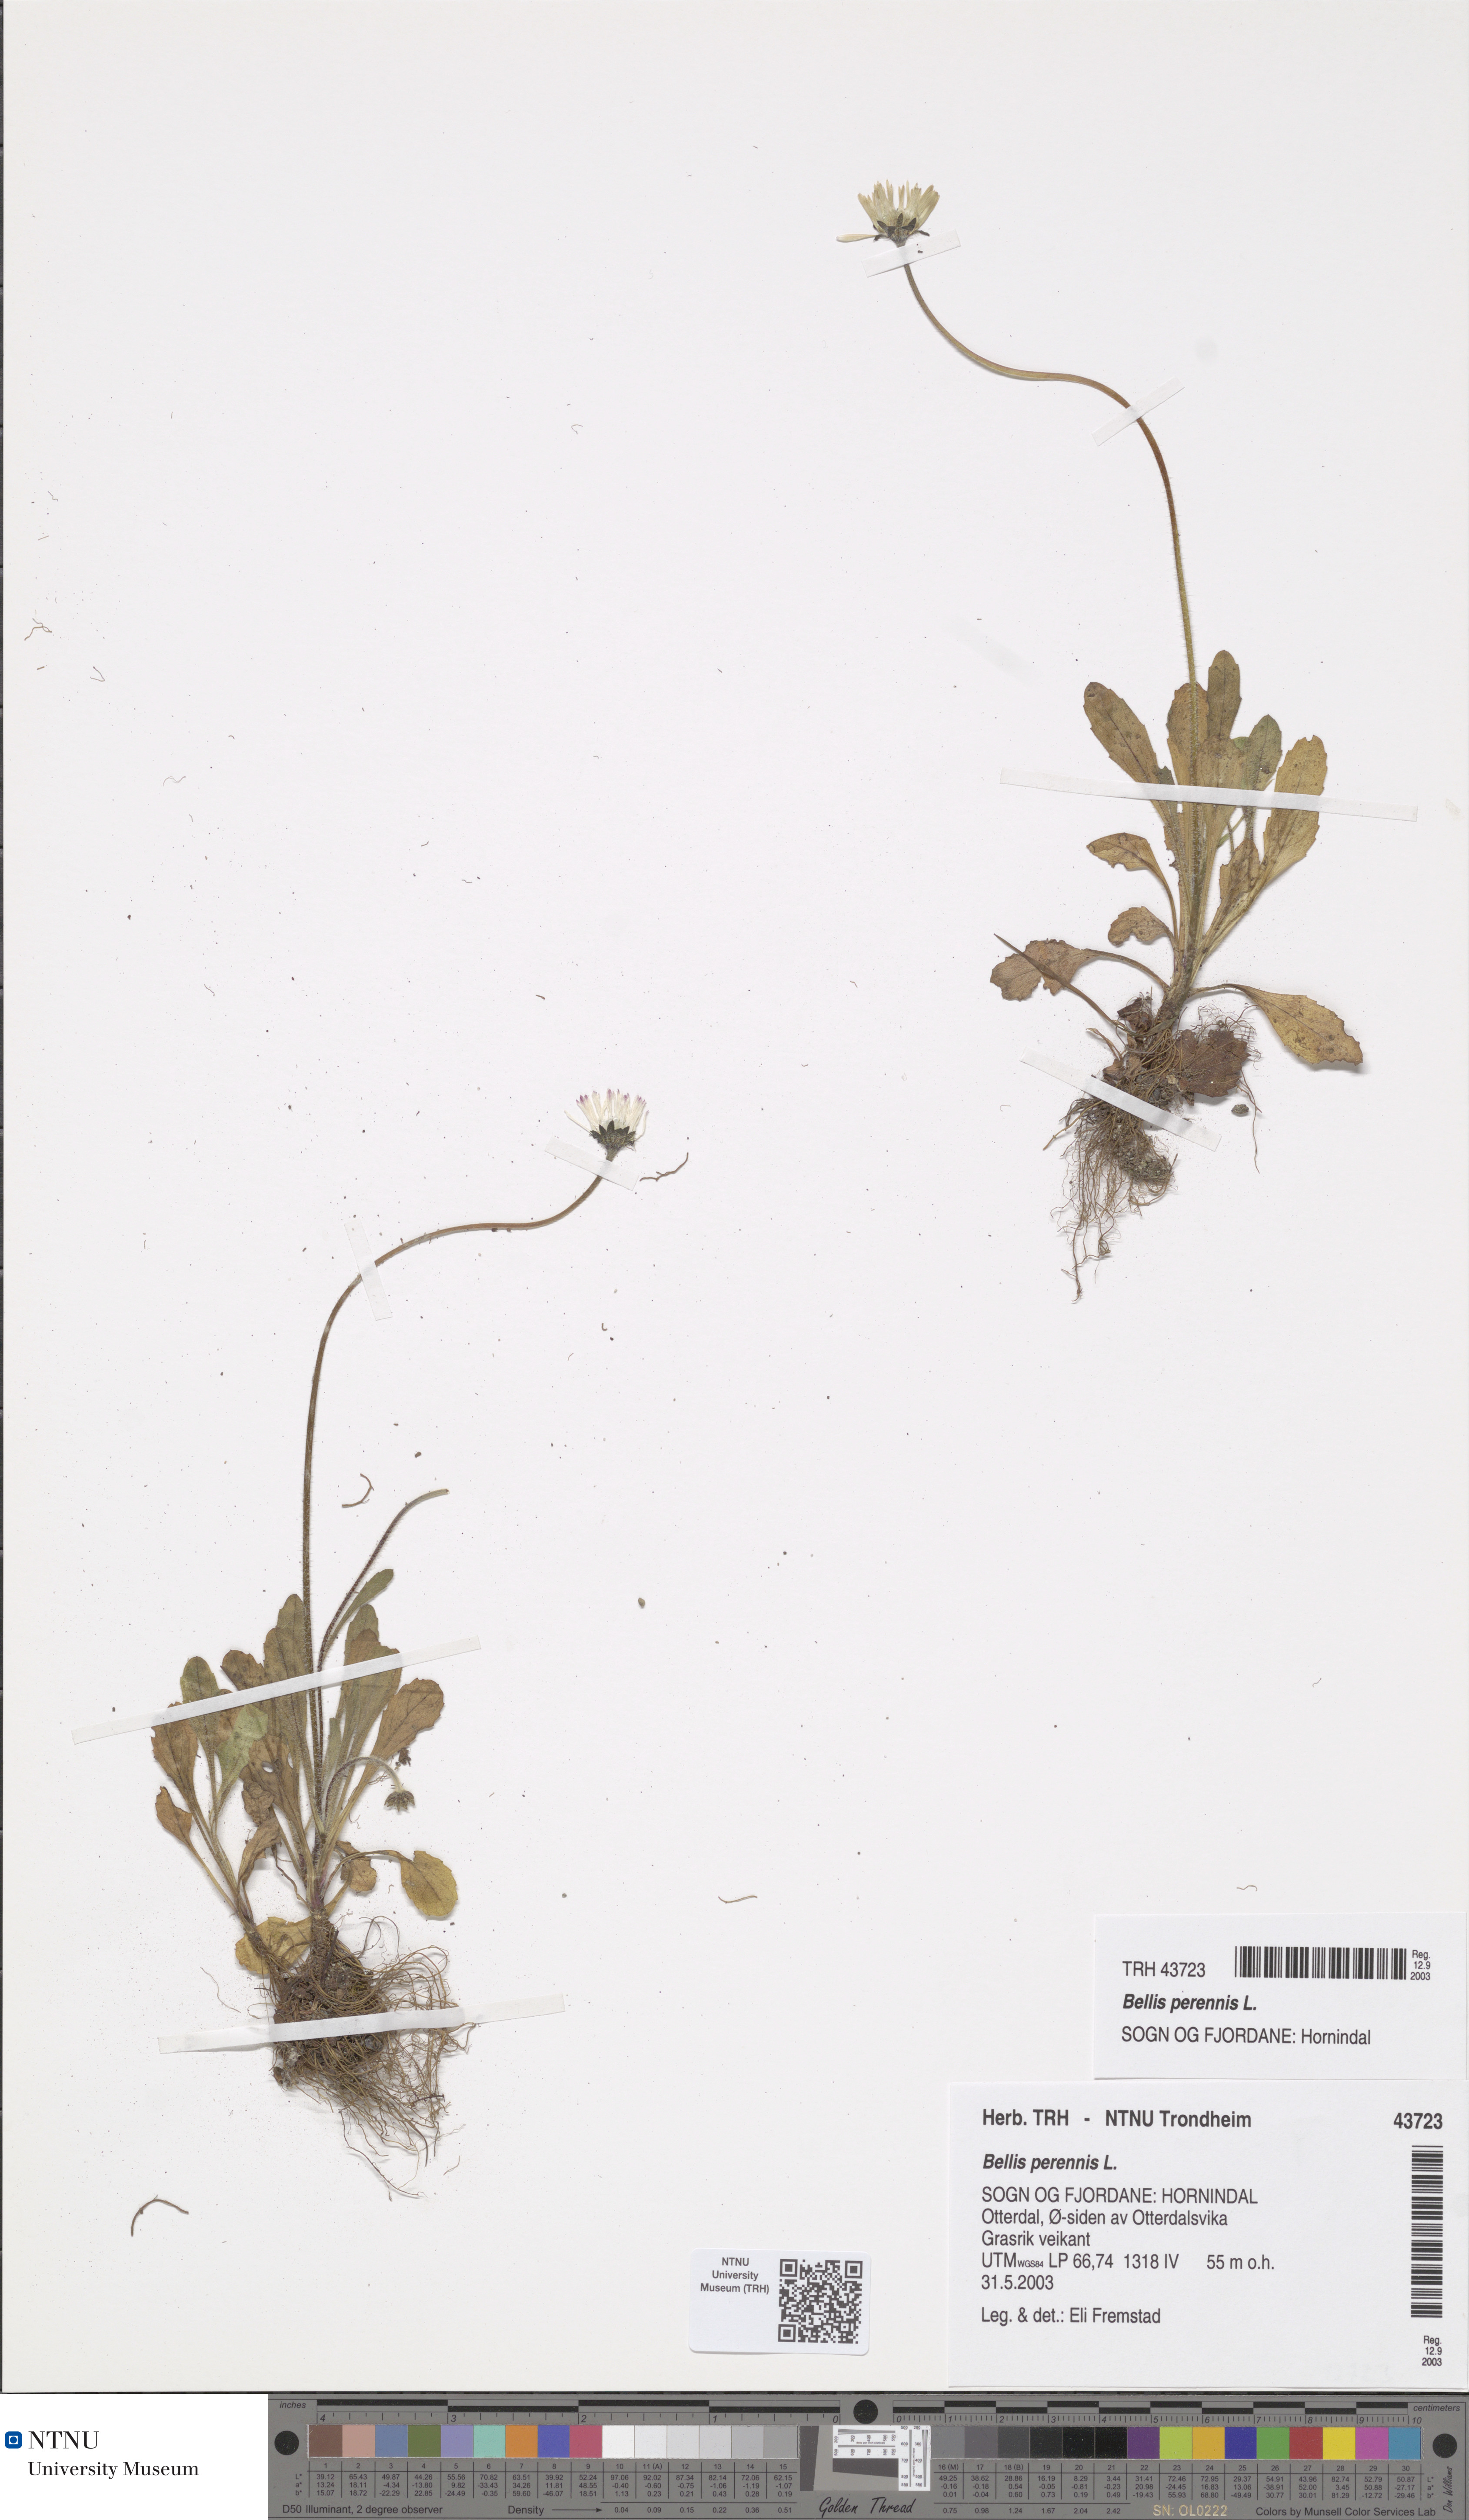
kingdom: Plantae
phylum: Tracheophyta
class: Magnoliopsida
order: Asterales
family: Asteraceae
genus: Bellis
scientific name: Bellis perennis
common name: Lawndaisy
